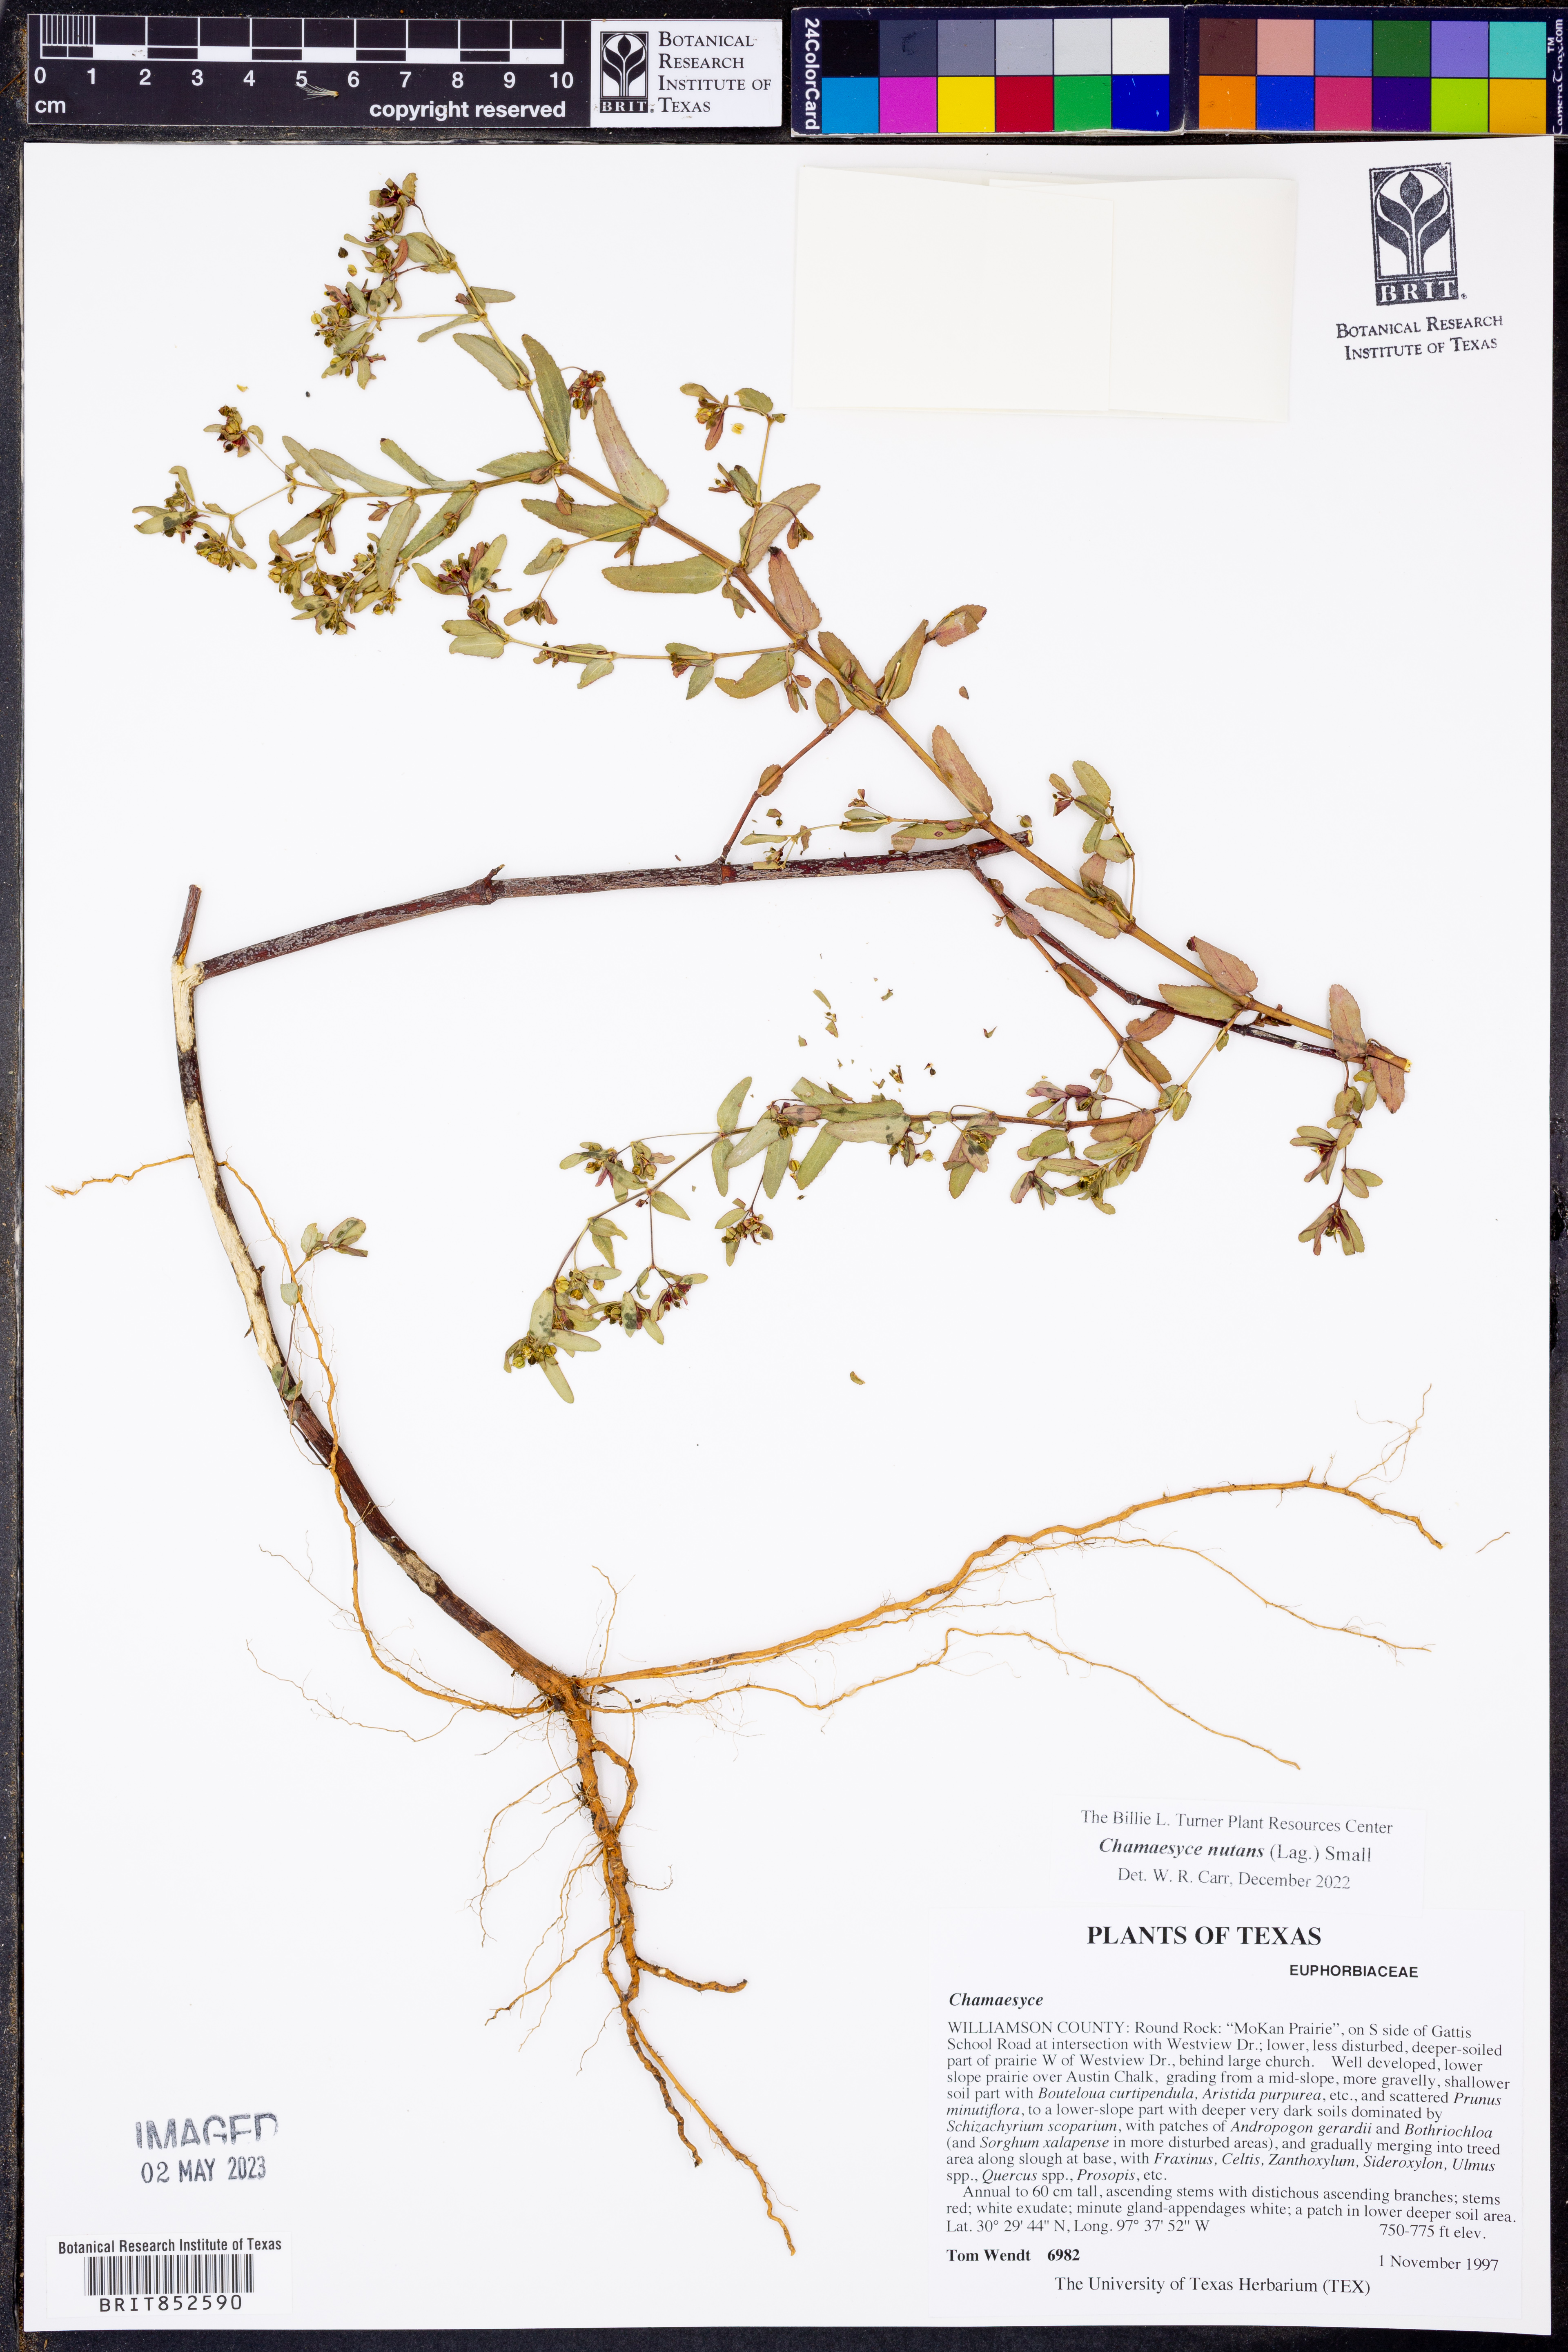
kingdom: Plantae
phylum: Tracheophyta
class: Magnoliopsida
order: Malpighiales
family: Euphorbiaceae
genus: Euphorbia
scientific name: Euphorbia nutans
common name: Eyebane
